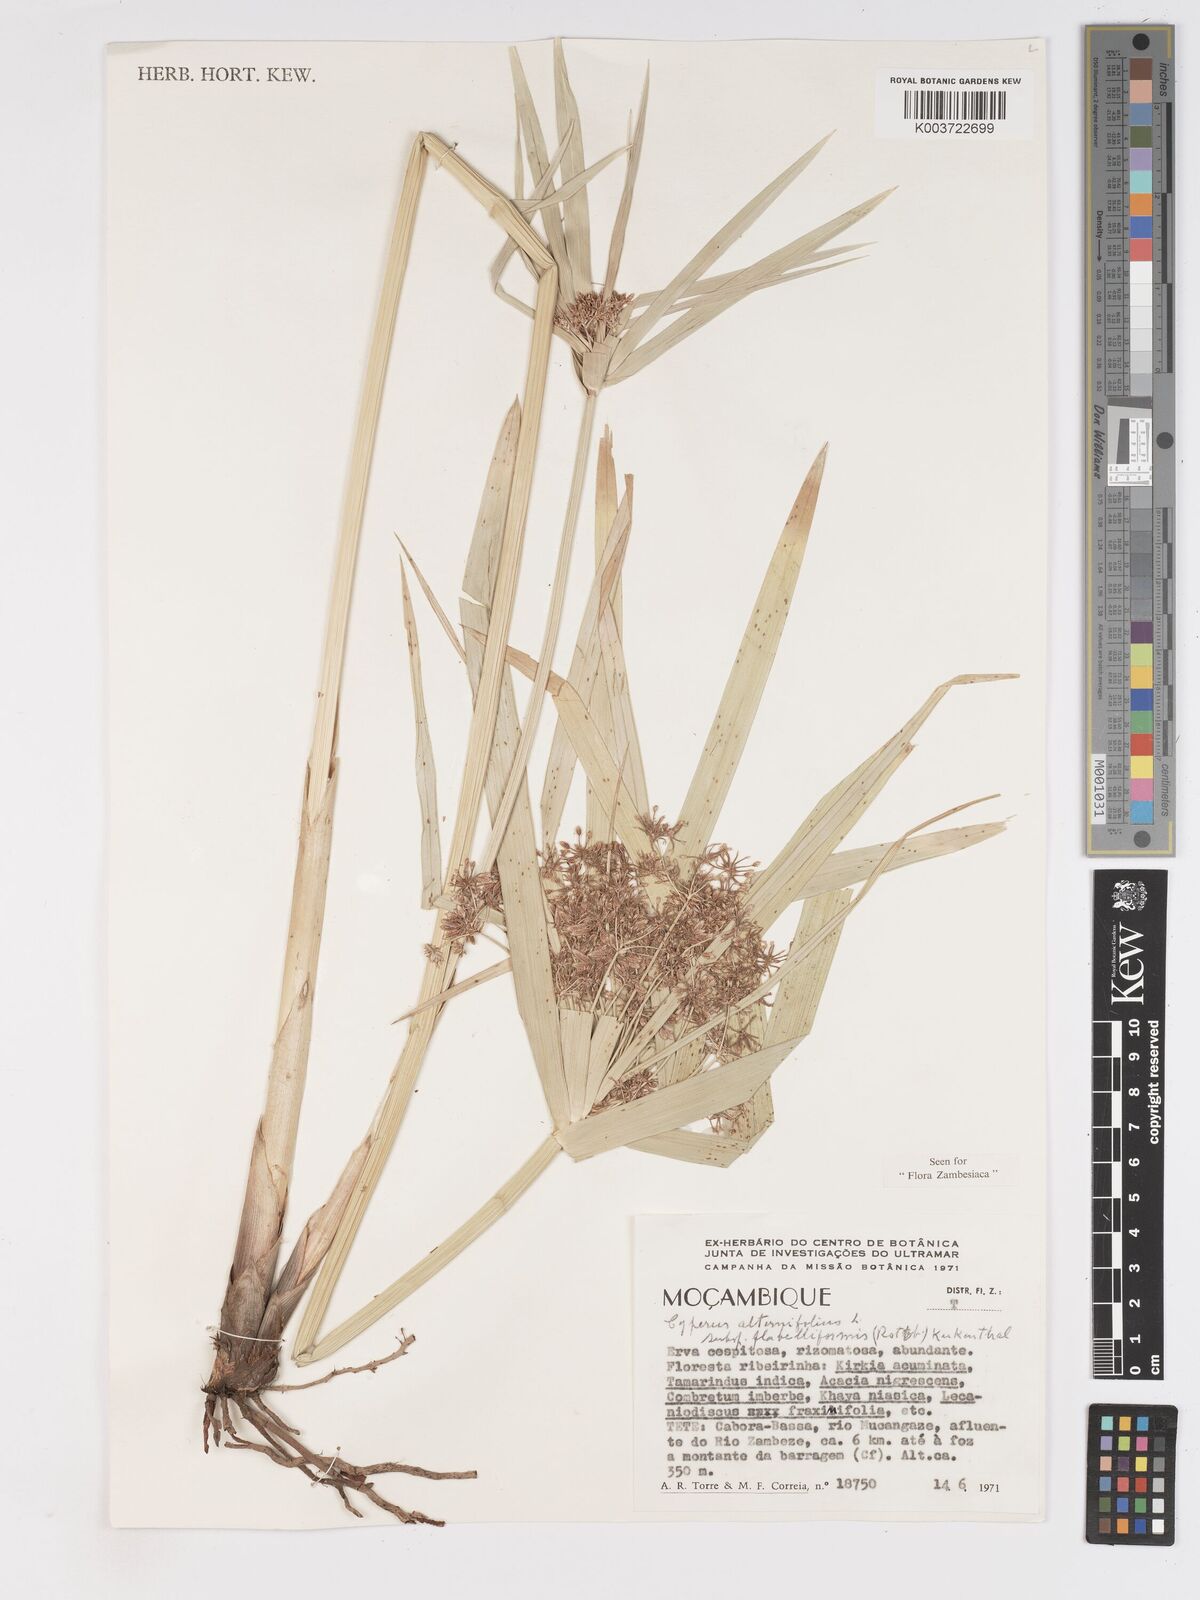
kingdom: Plantae
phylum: Tracheophyta
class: Liliopsida
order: Poales
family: Cyperaceae
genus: Cyperus
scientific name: Cyperus alternifolius
